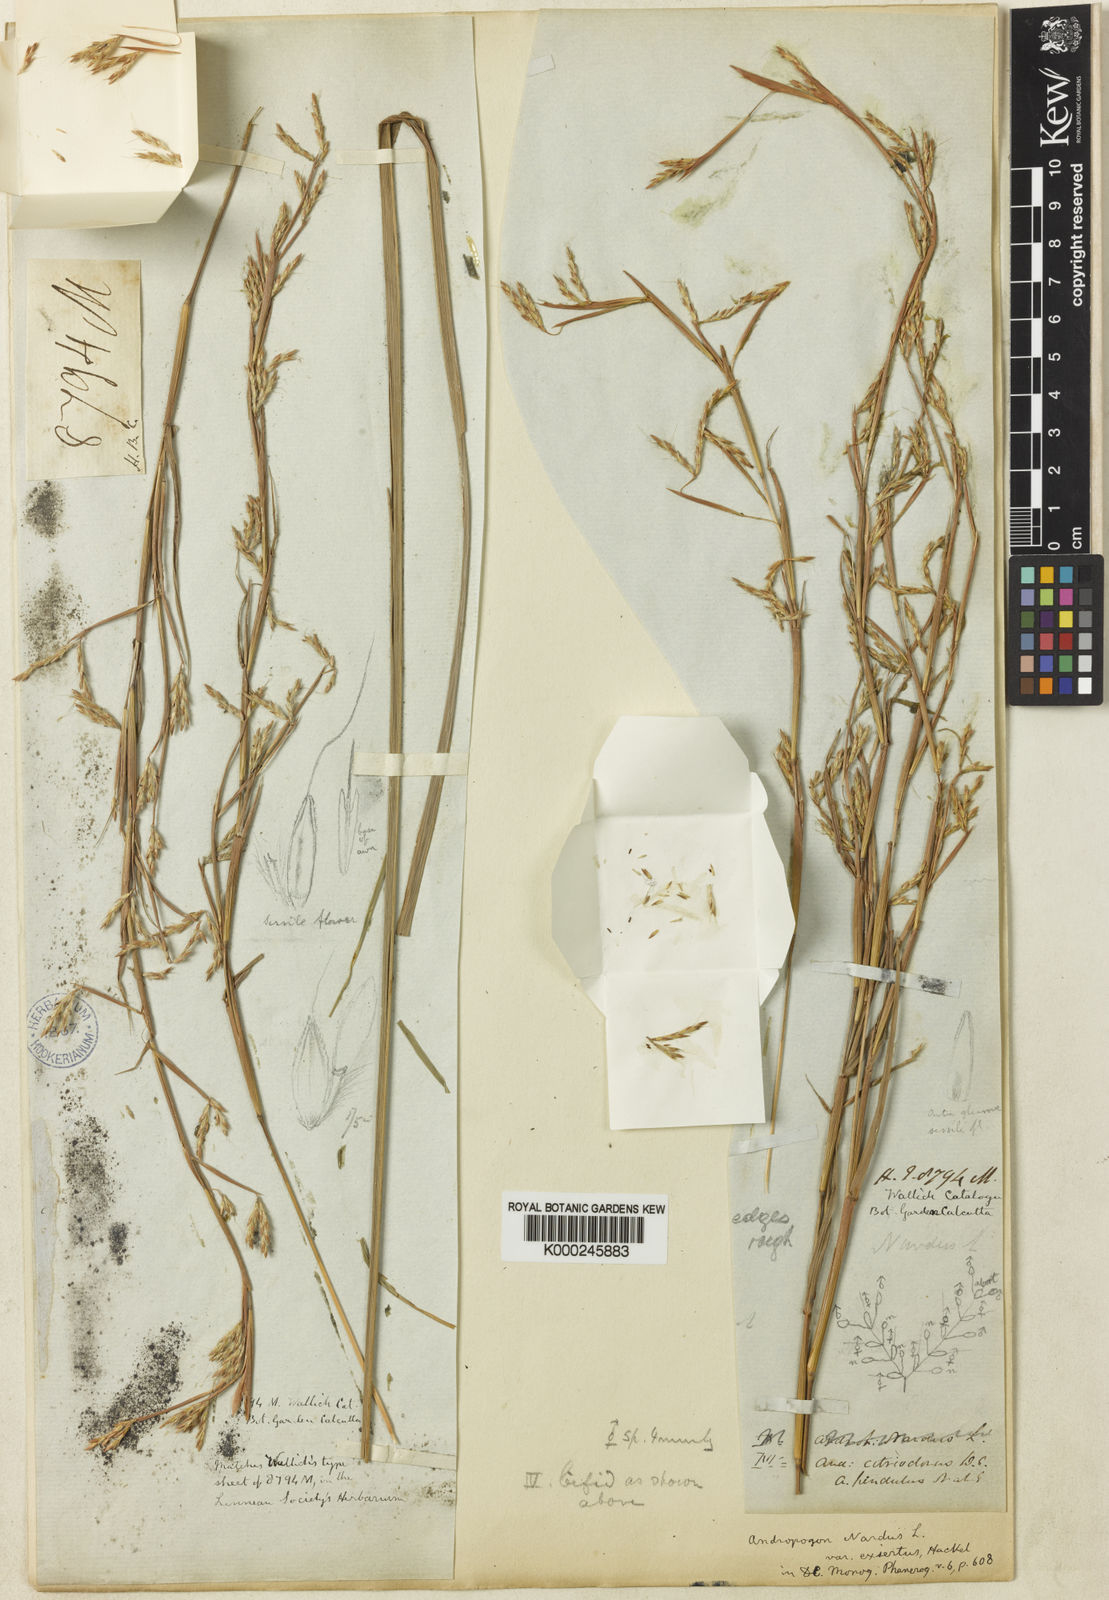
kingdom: Plantae
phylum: Tracheophyta
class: Liliopsida
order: Poales
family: Poaceae
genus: Cymbopogon
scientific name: Cymbopogon exsertus
